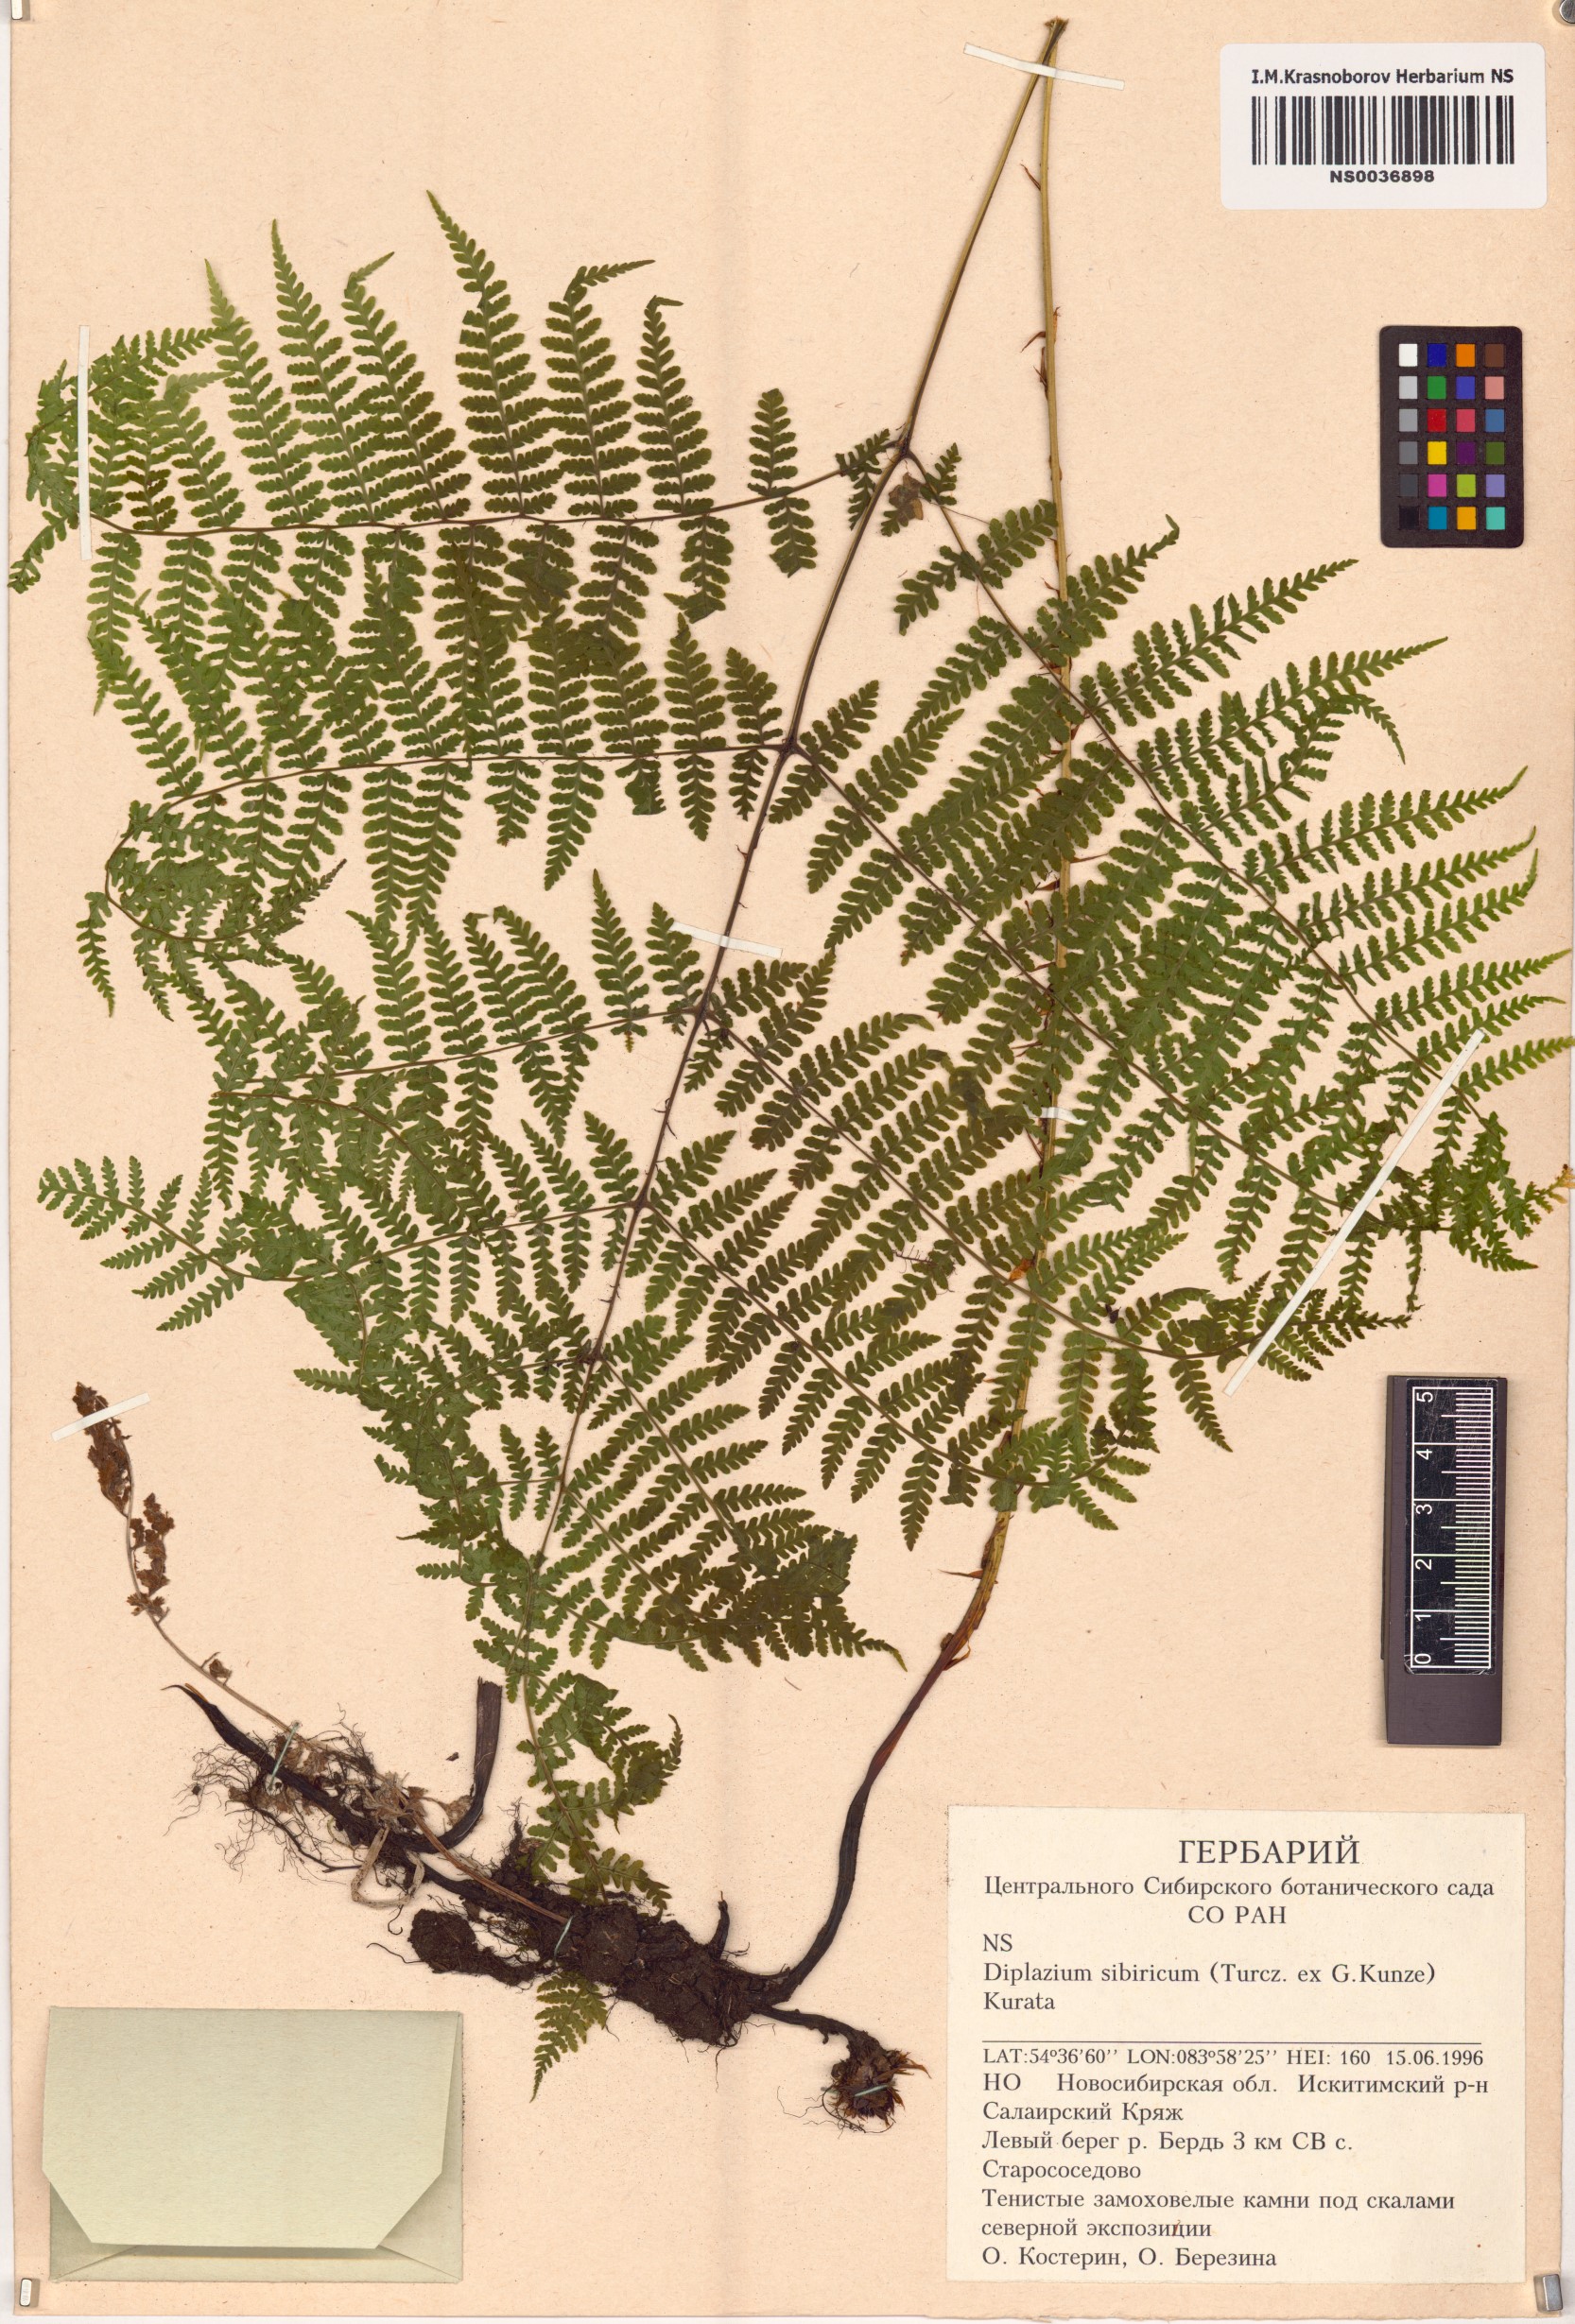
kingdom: Plantae
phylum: Tracheophyta
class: Polypodiopsida
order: Polypodiales
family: Athyriaceae
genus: Diplazium
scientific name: Diplazium sibiricum
